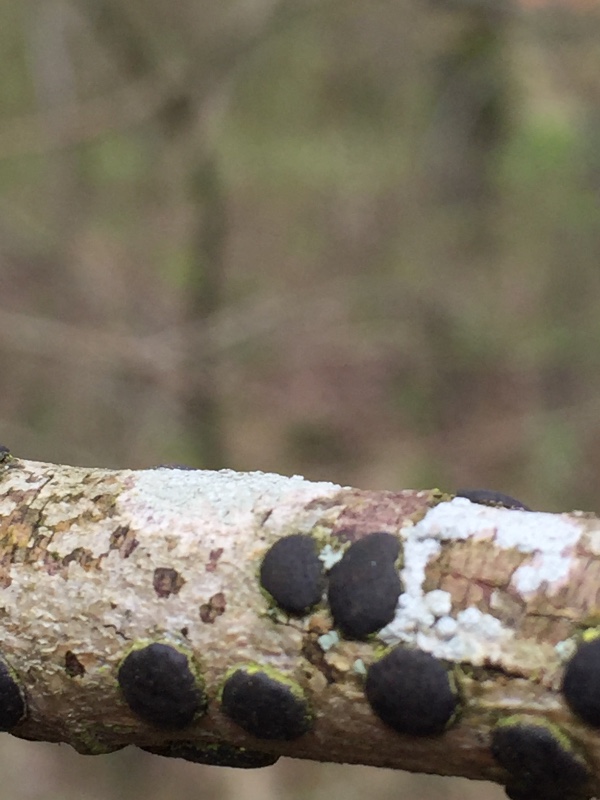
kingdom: Fungi
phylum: Ascomycota
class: Sordariomycetes
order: Xylariales
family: Diatrypaceae
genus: Diatrype
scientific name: Diatrype bullata
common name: pile-kulskorpe
